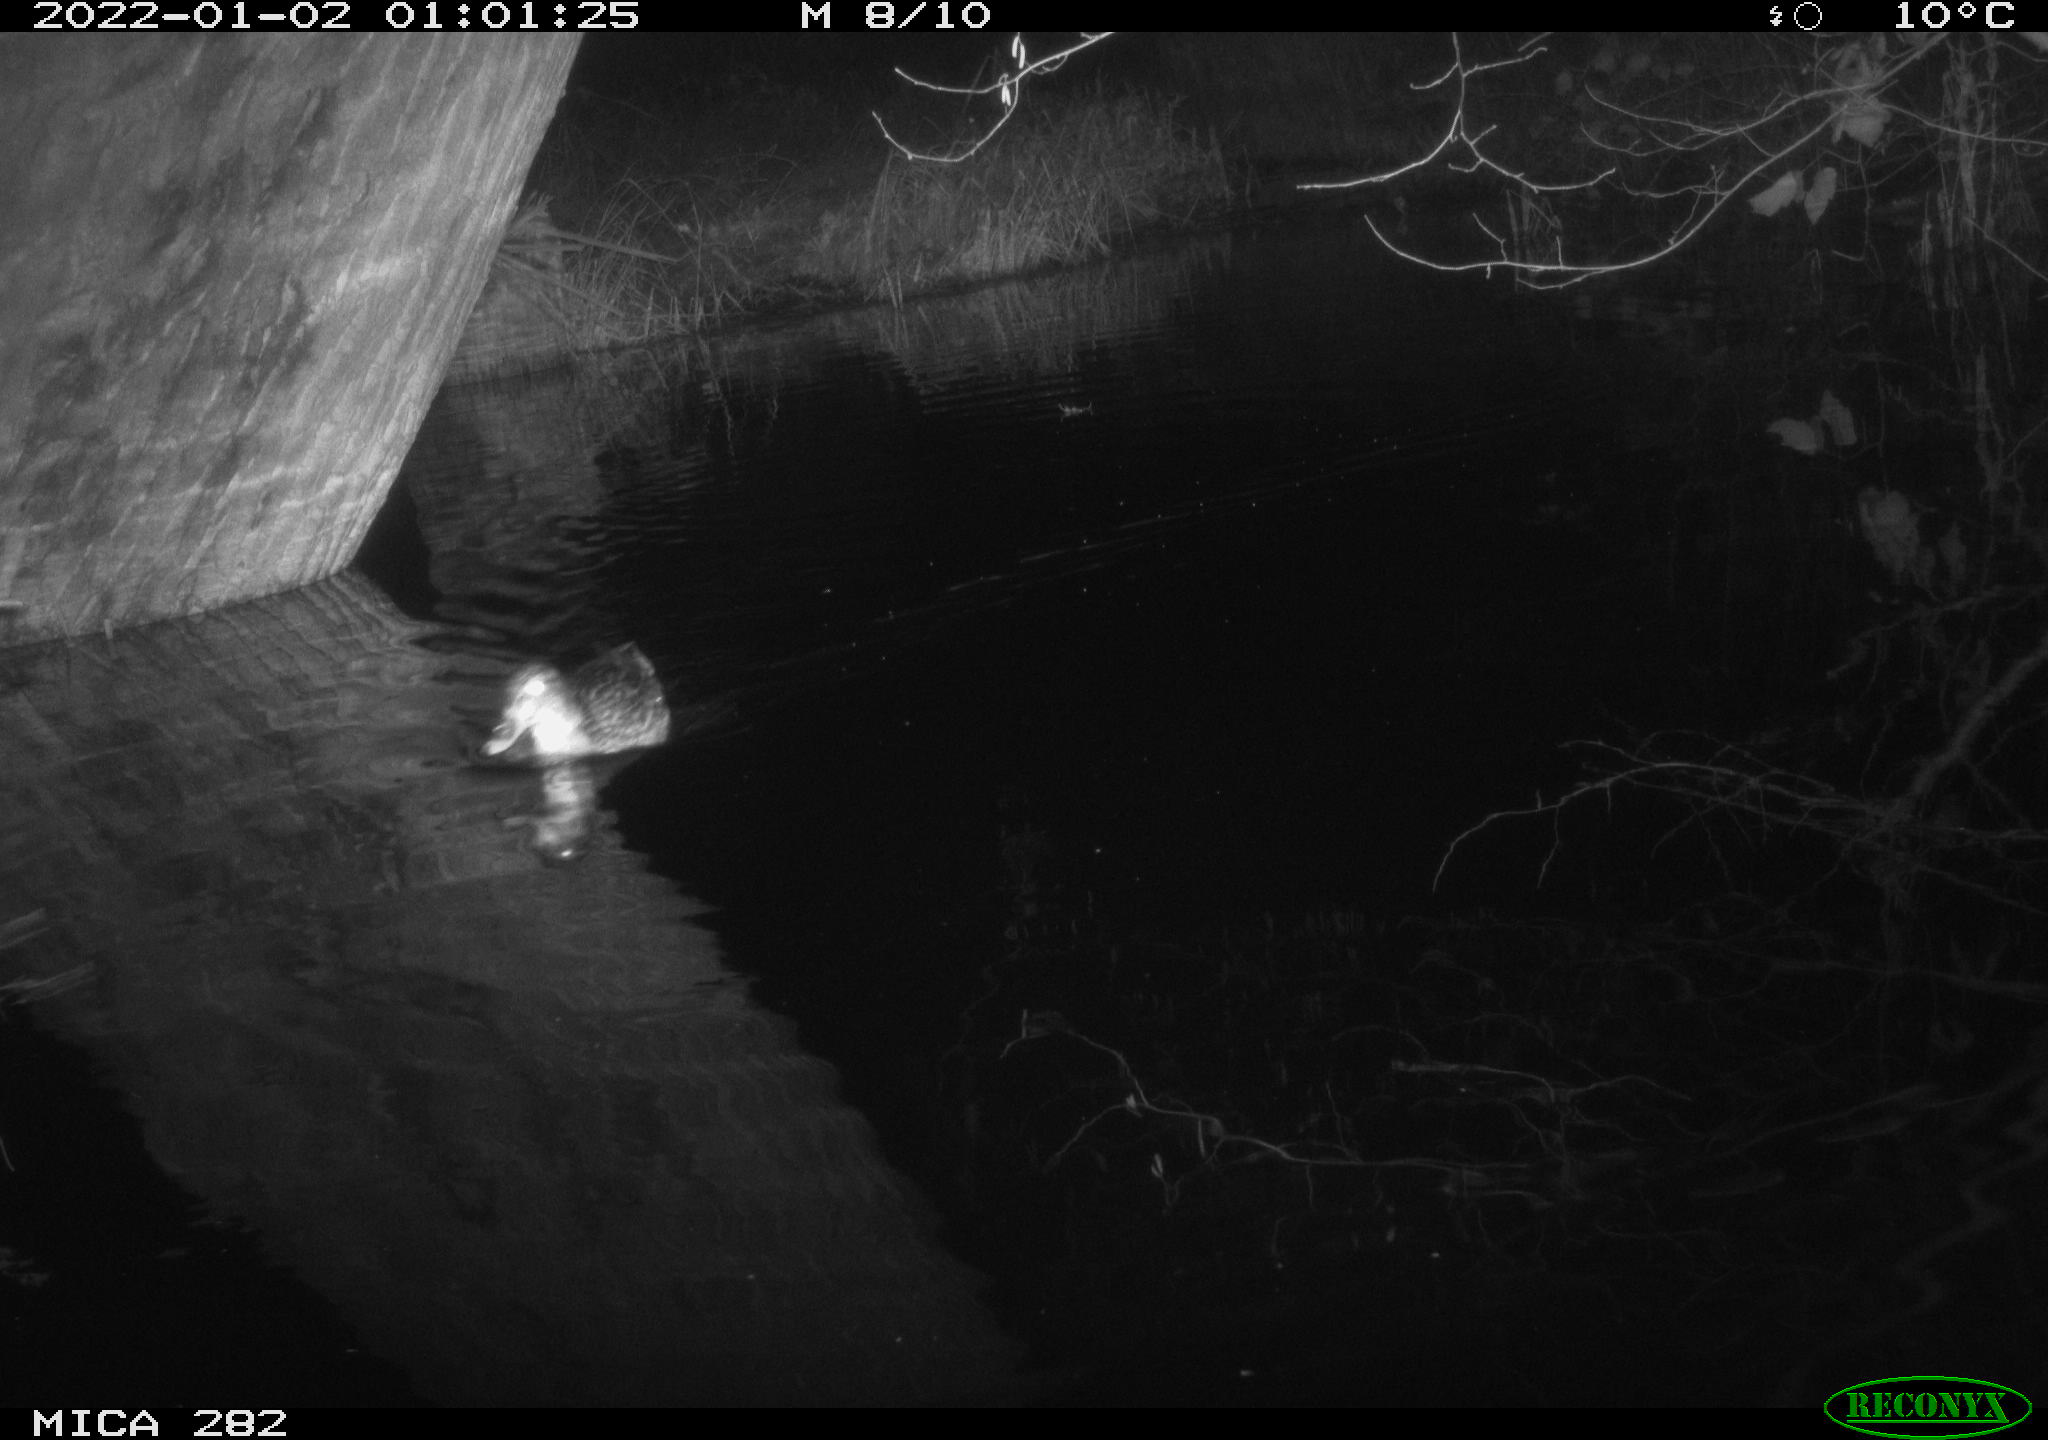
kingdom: Animalia
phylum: Chordata
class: Aves
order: Anseriformes
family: Anatidae
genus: Anas
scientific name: Anas platyrhynchos
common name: Mallard
